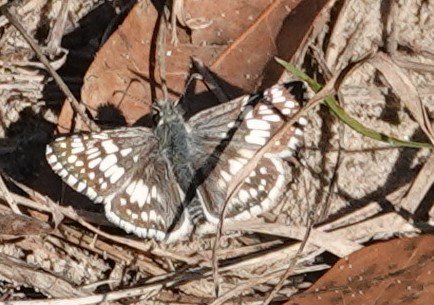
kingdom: Animalia
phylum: Arthropoda
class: Insecta
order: Lepidoptera
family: Hesperiidae
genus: Pyrgus
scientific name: Pyrgus communis
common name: White Checkered-Skipper
